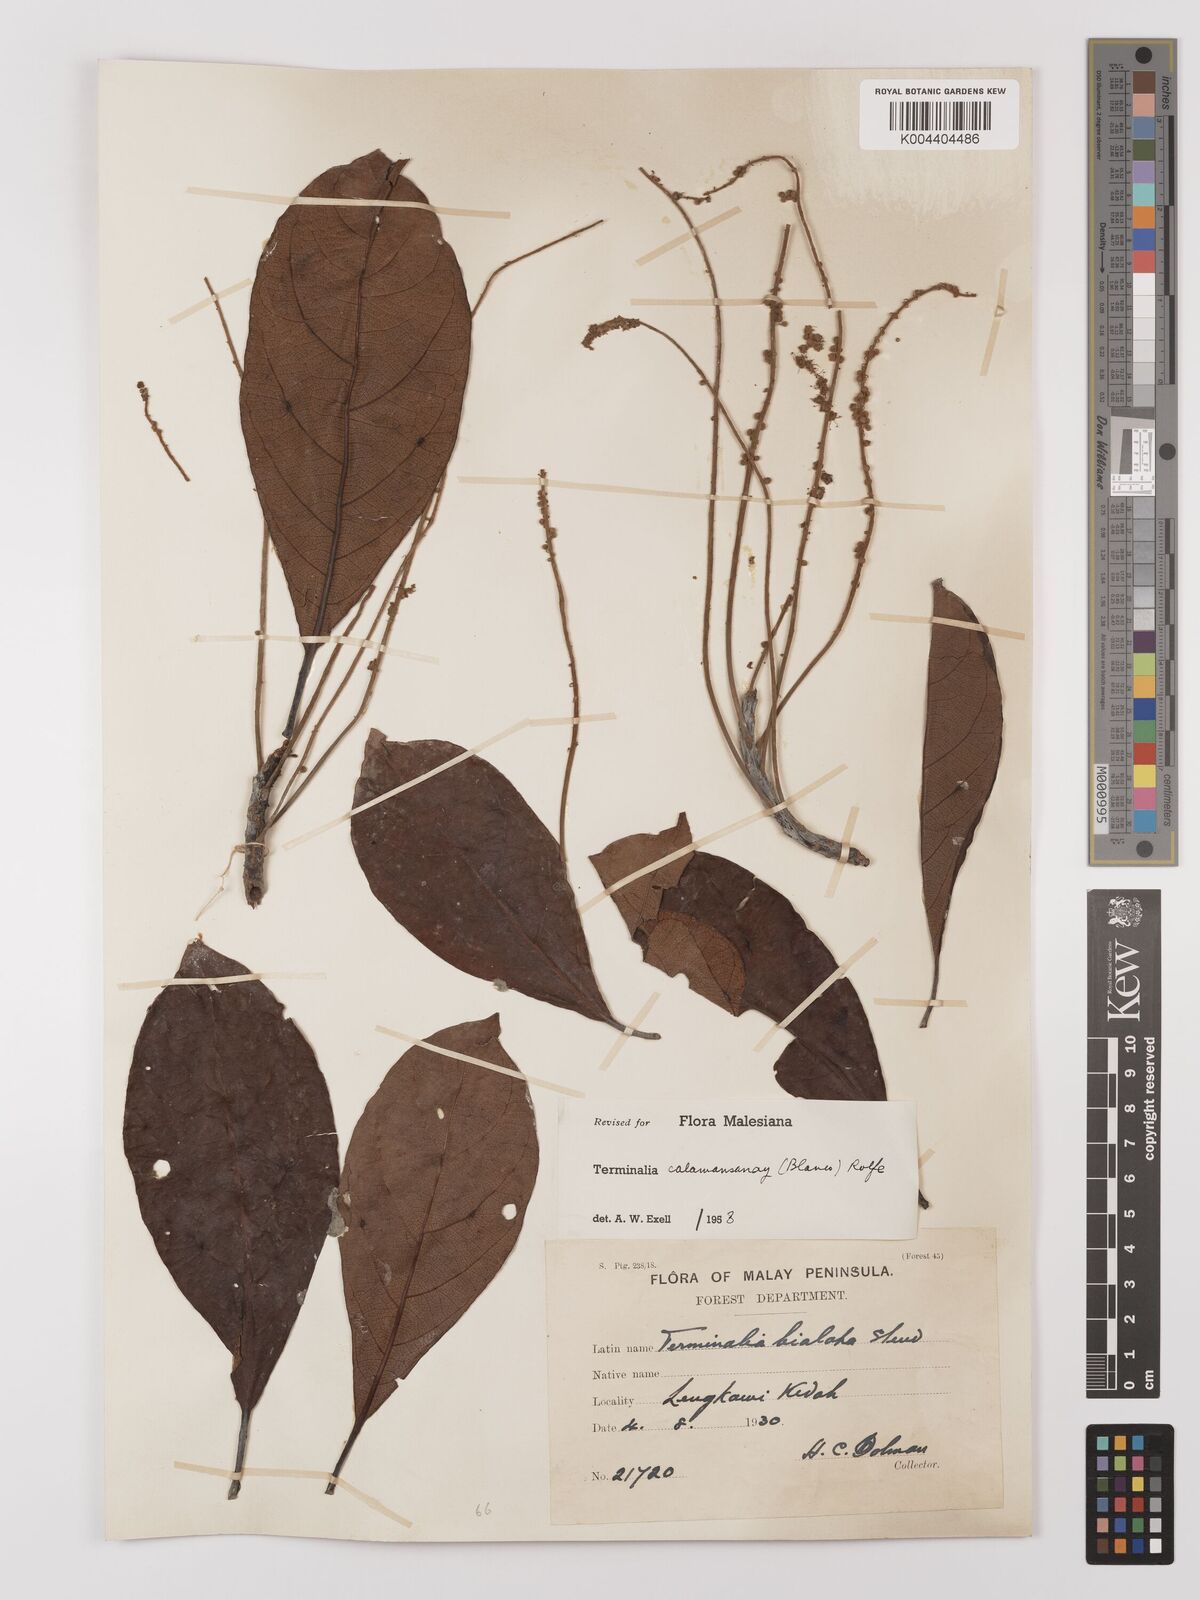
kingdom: Plantae
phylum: Tracheophyta
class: Magnoliopsida
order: Myrtales
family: Combretaceae
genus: Terminalia
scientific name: Terminalia calamansanai
